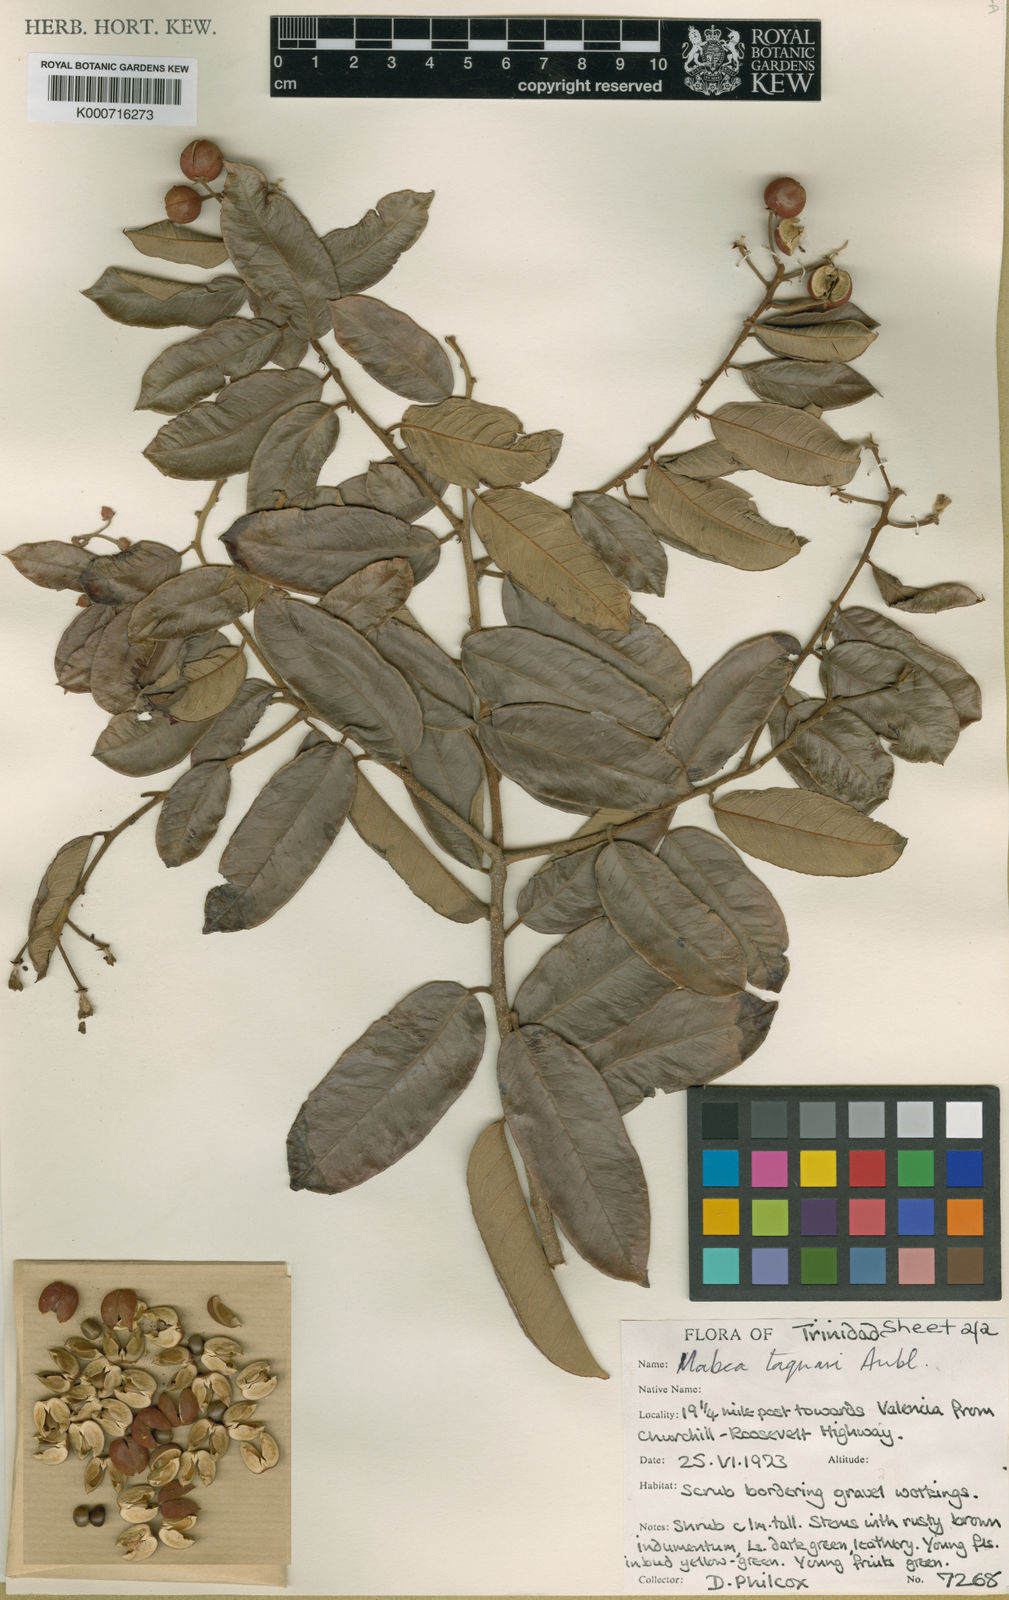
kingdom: Plantae
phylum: Tracheophyta
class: Magnoliopsida
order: Malpighiales
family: Euphorbiaceae
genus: Mabea
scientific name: Mabea taquari
